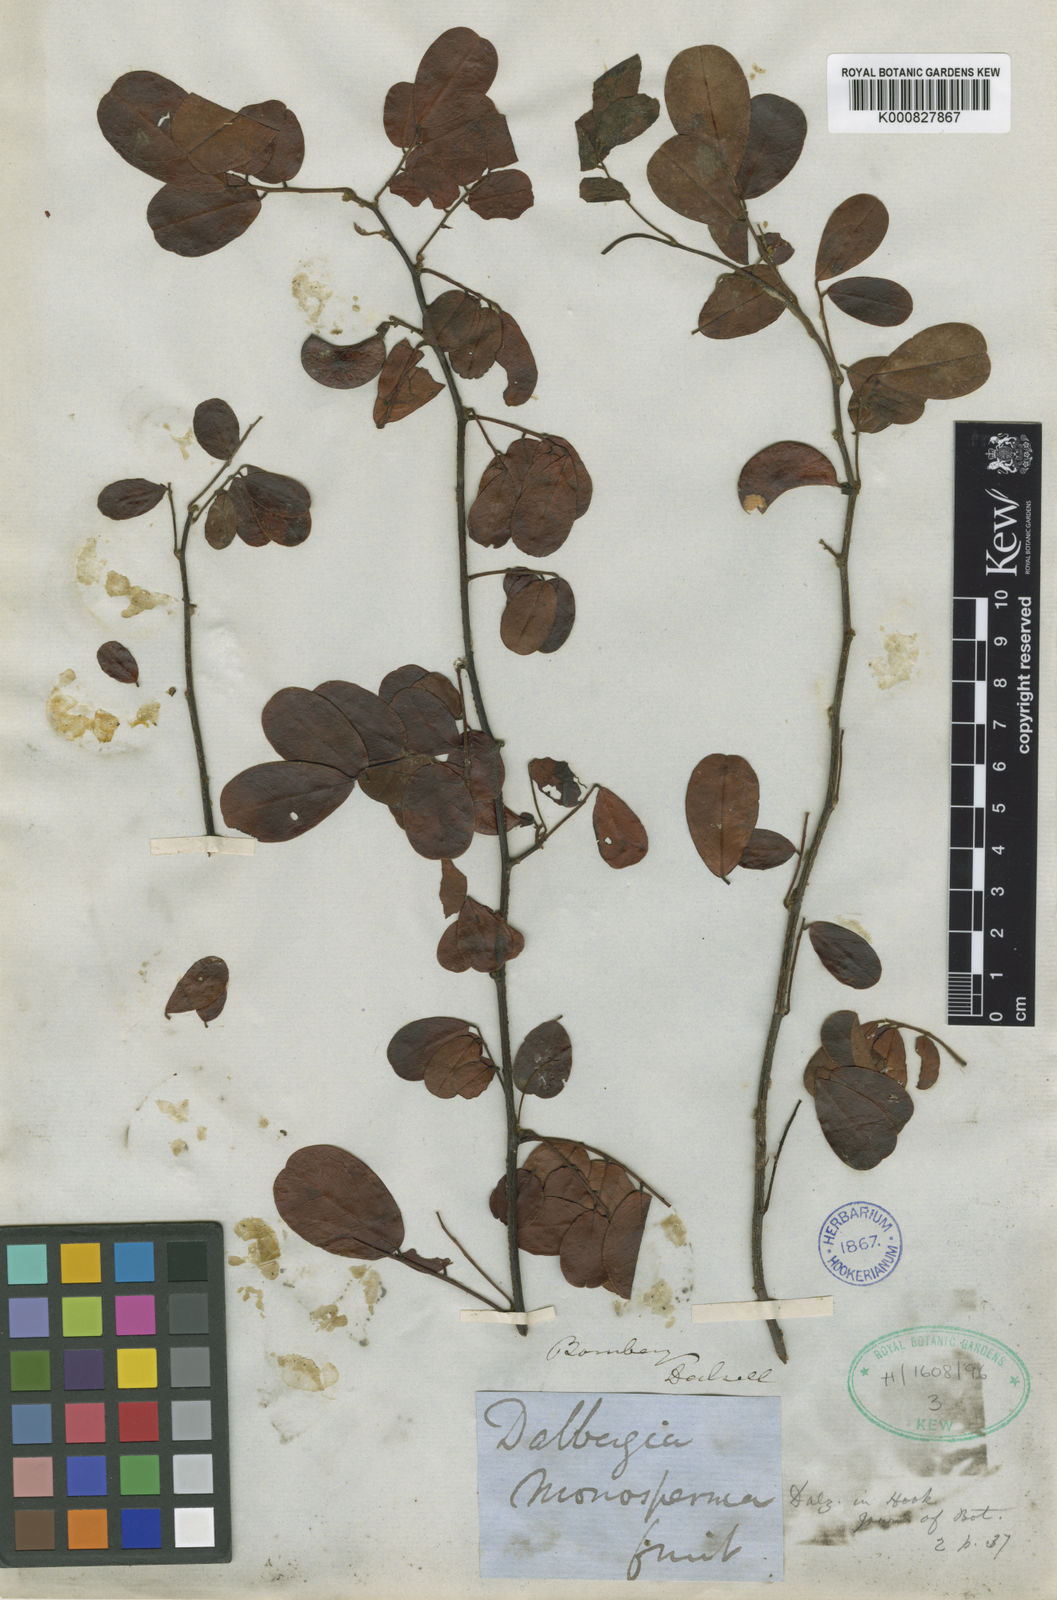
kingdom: Plantae
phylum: Tracheophyta
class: Magnoliopsida
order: Fabales
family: Fabaceae
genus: Dalbergia
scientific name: Dalbergia
